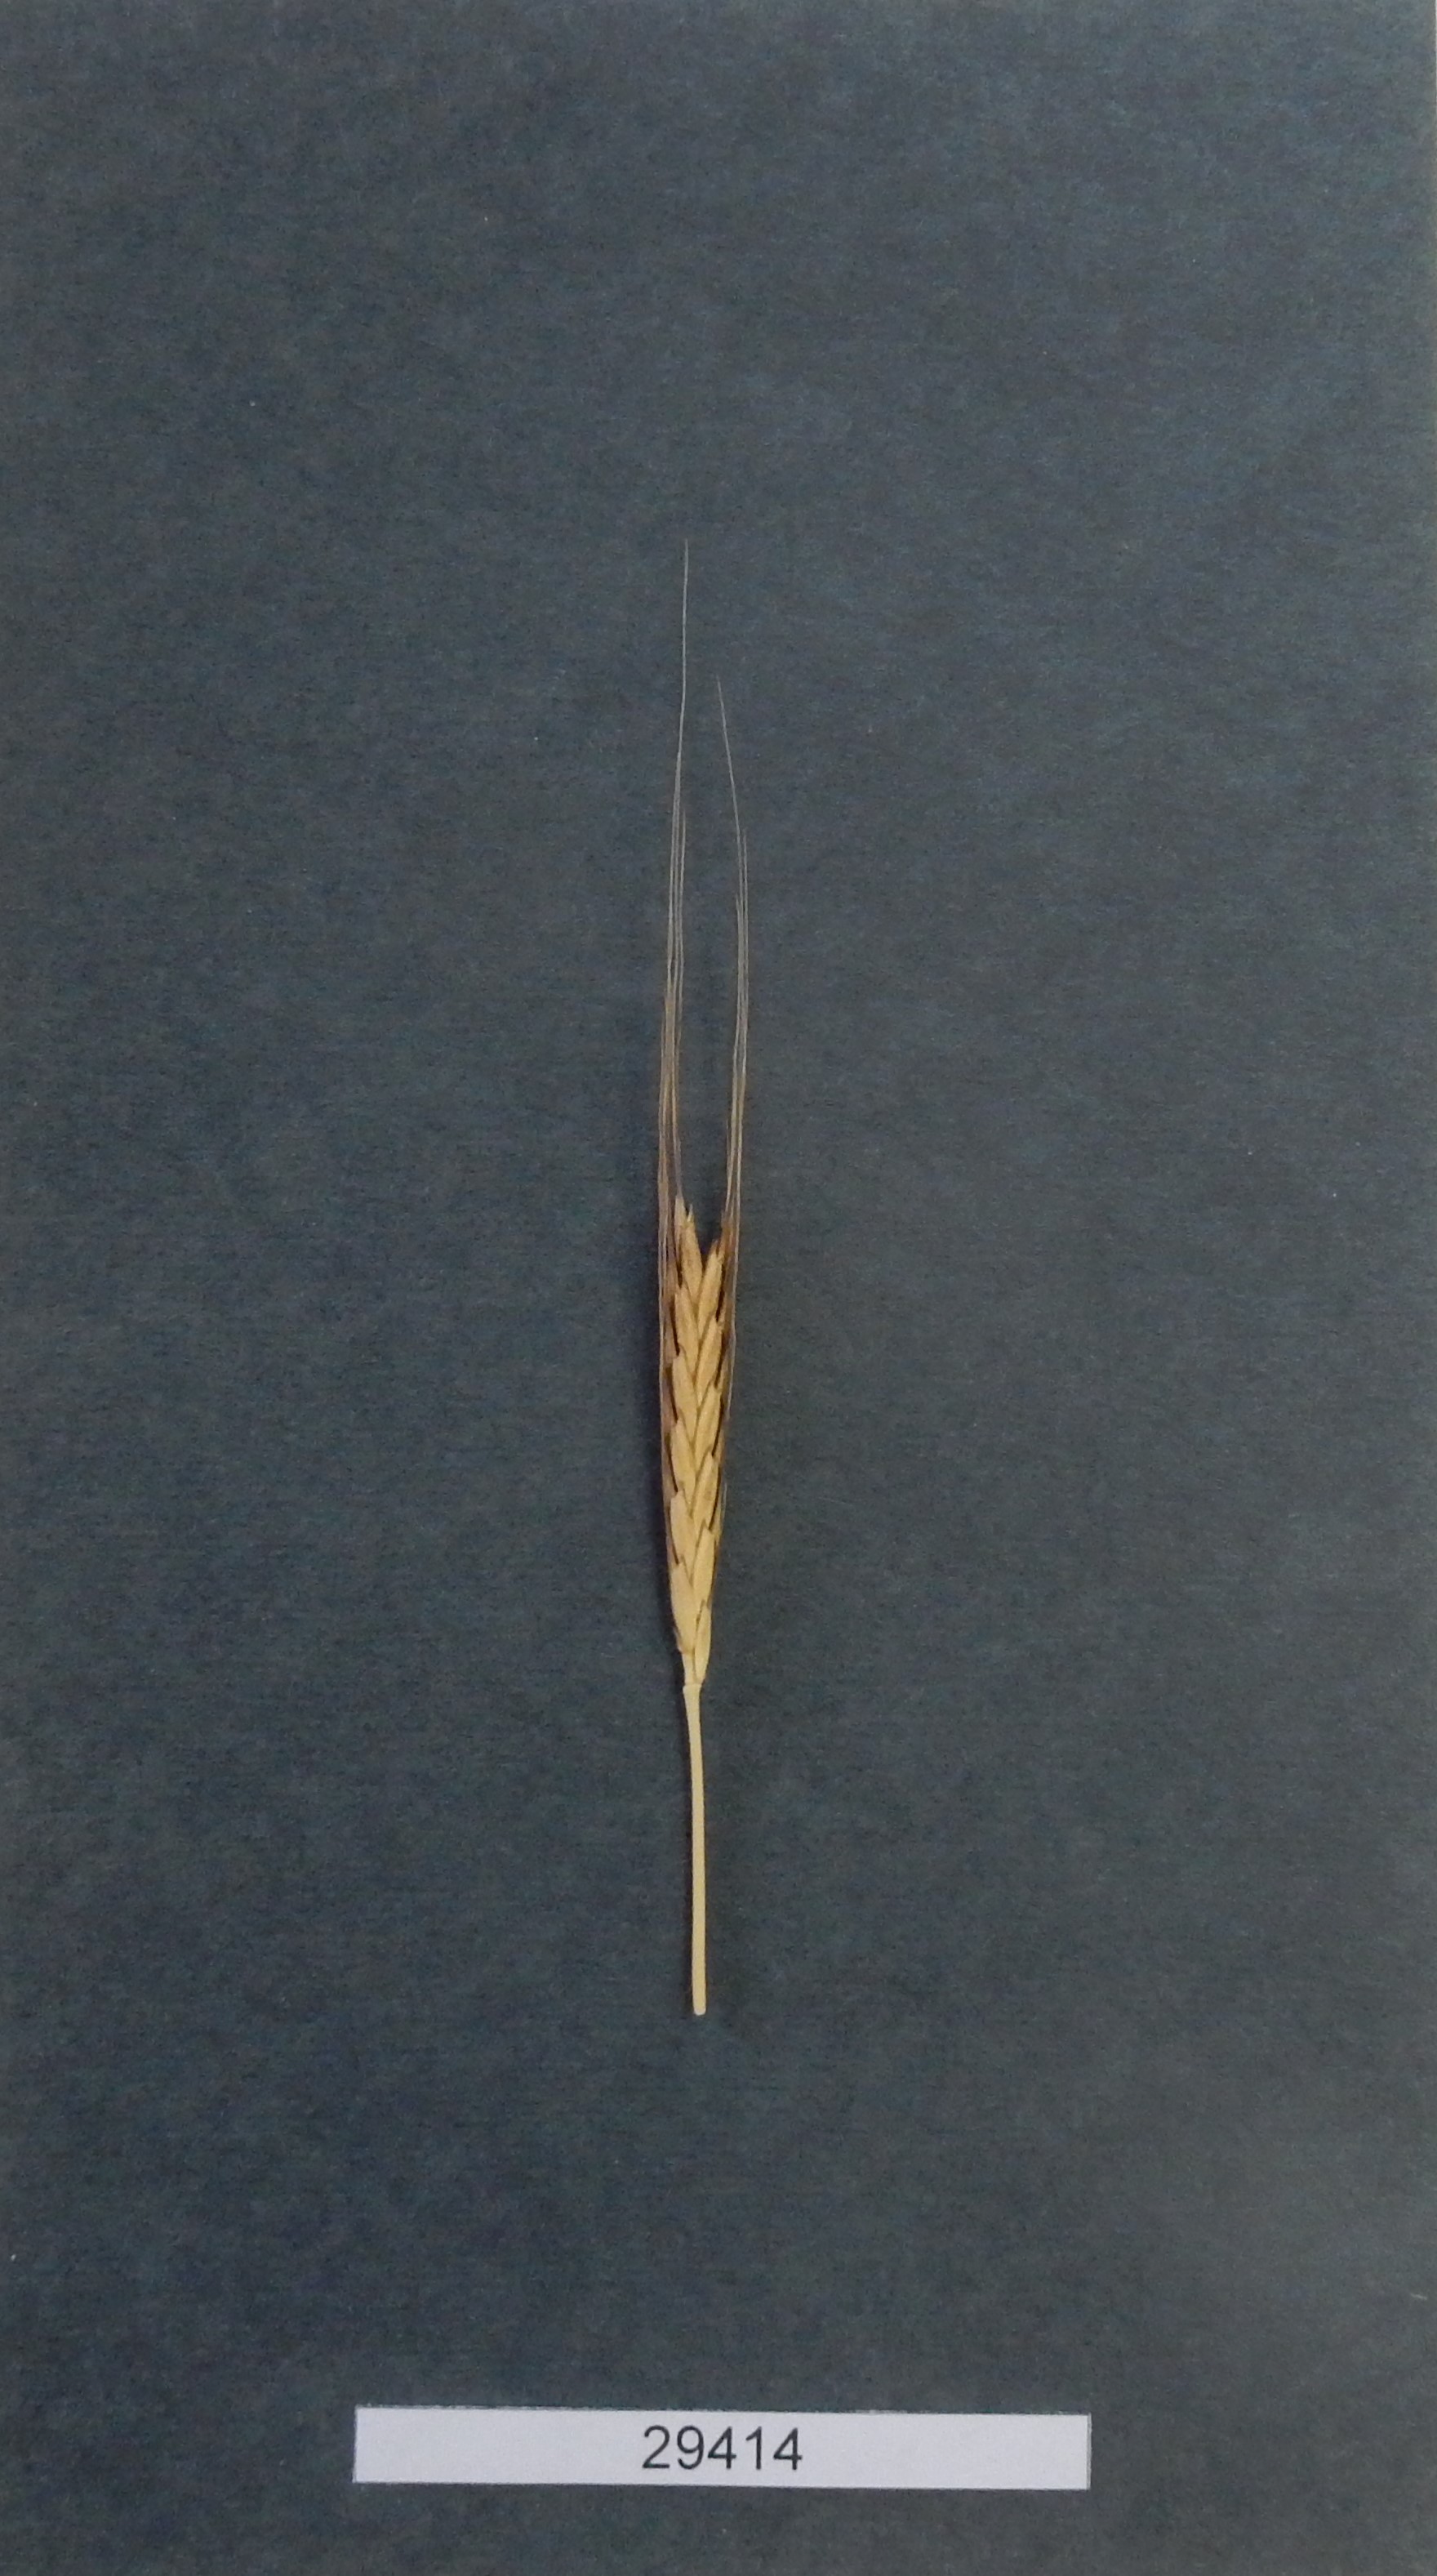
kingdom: Plantae
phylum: Tracheophyta
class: Liliopsida
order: Poales
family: Poaceae
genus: Triticum
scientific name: Triticum urartu
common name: Red wild einkorn
